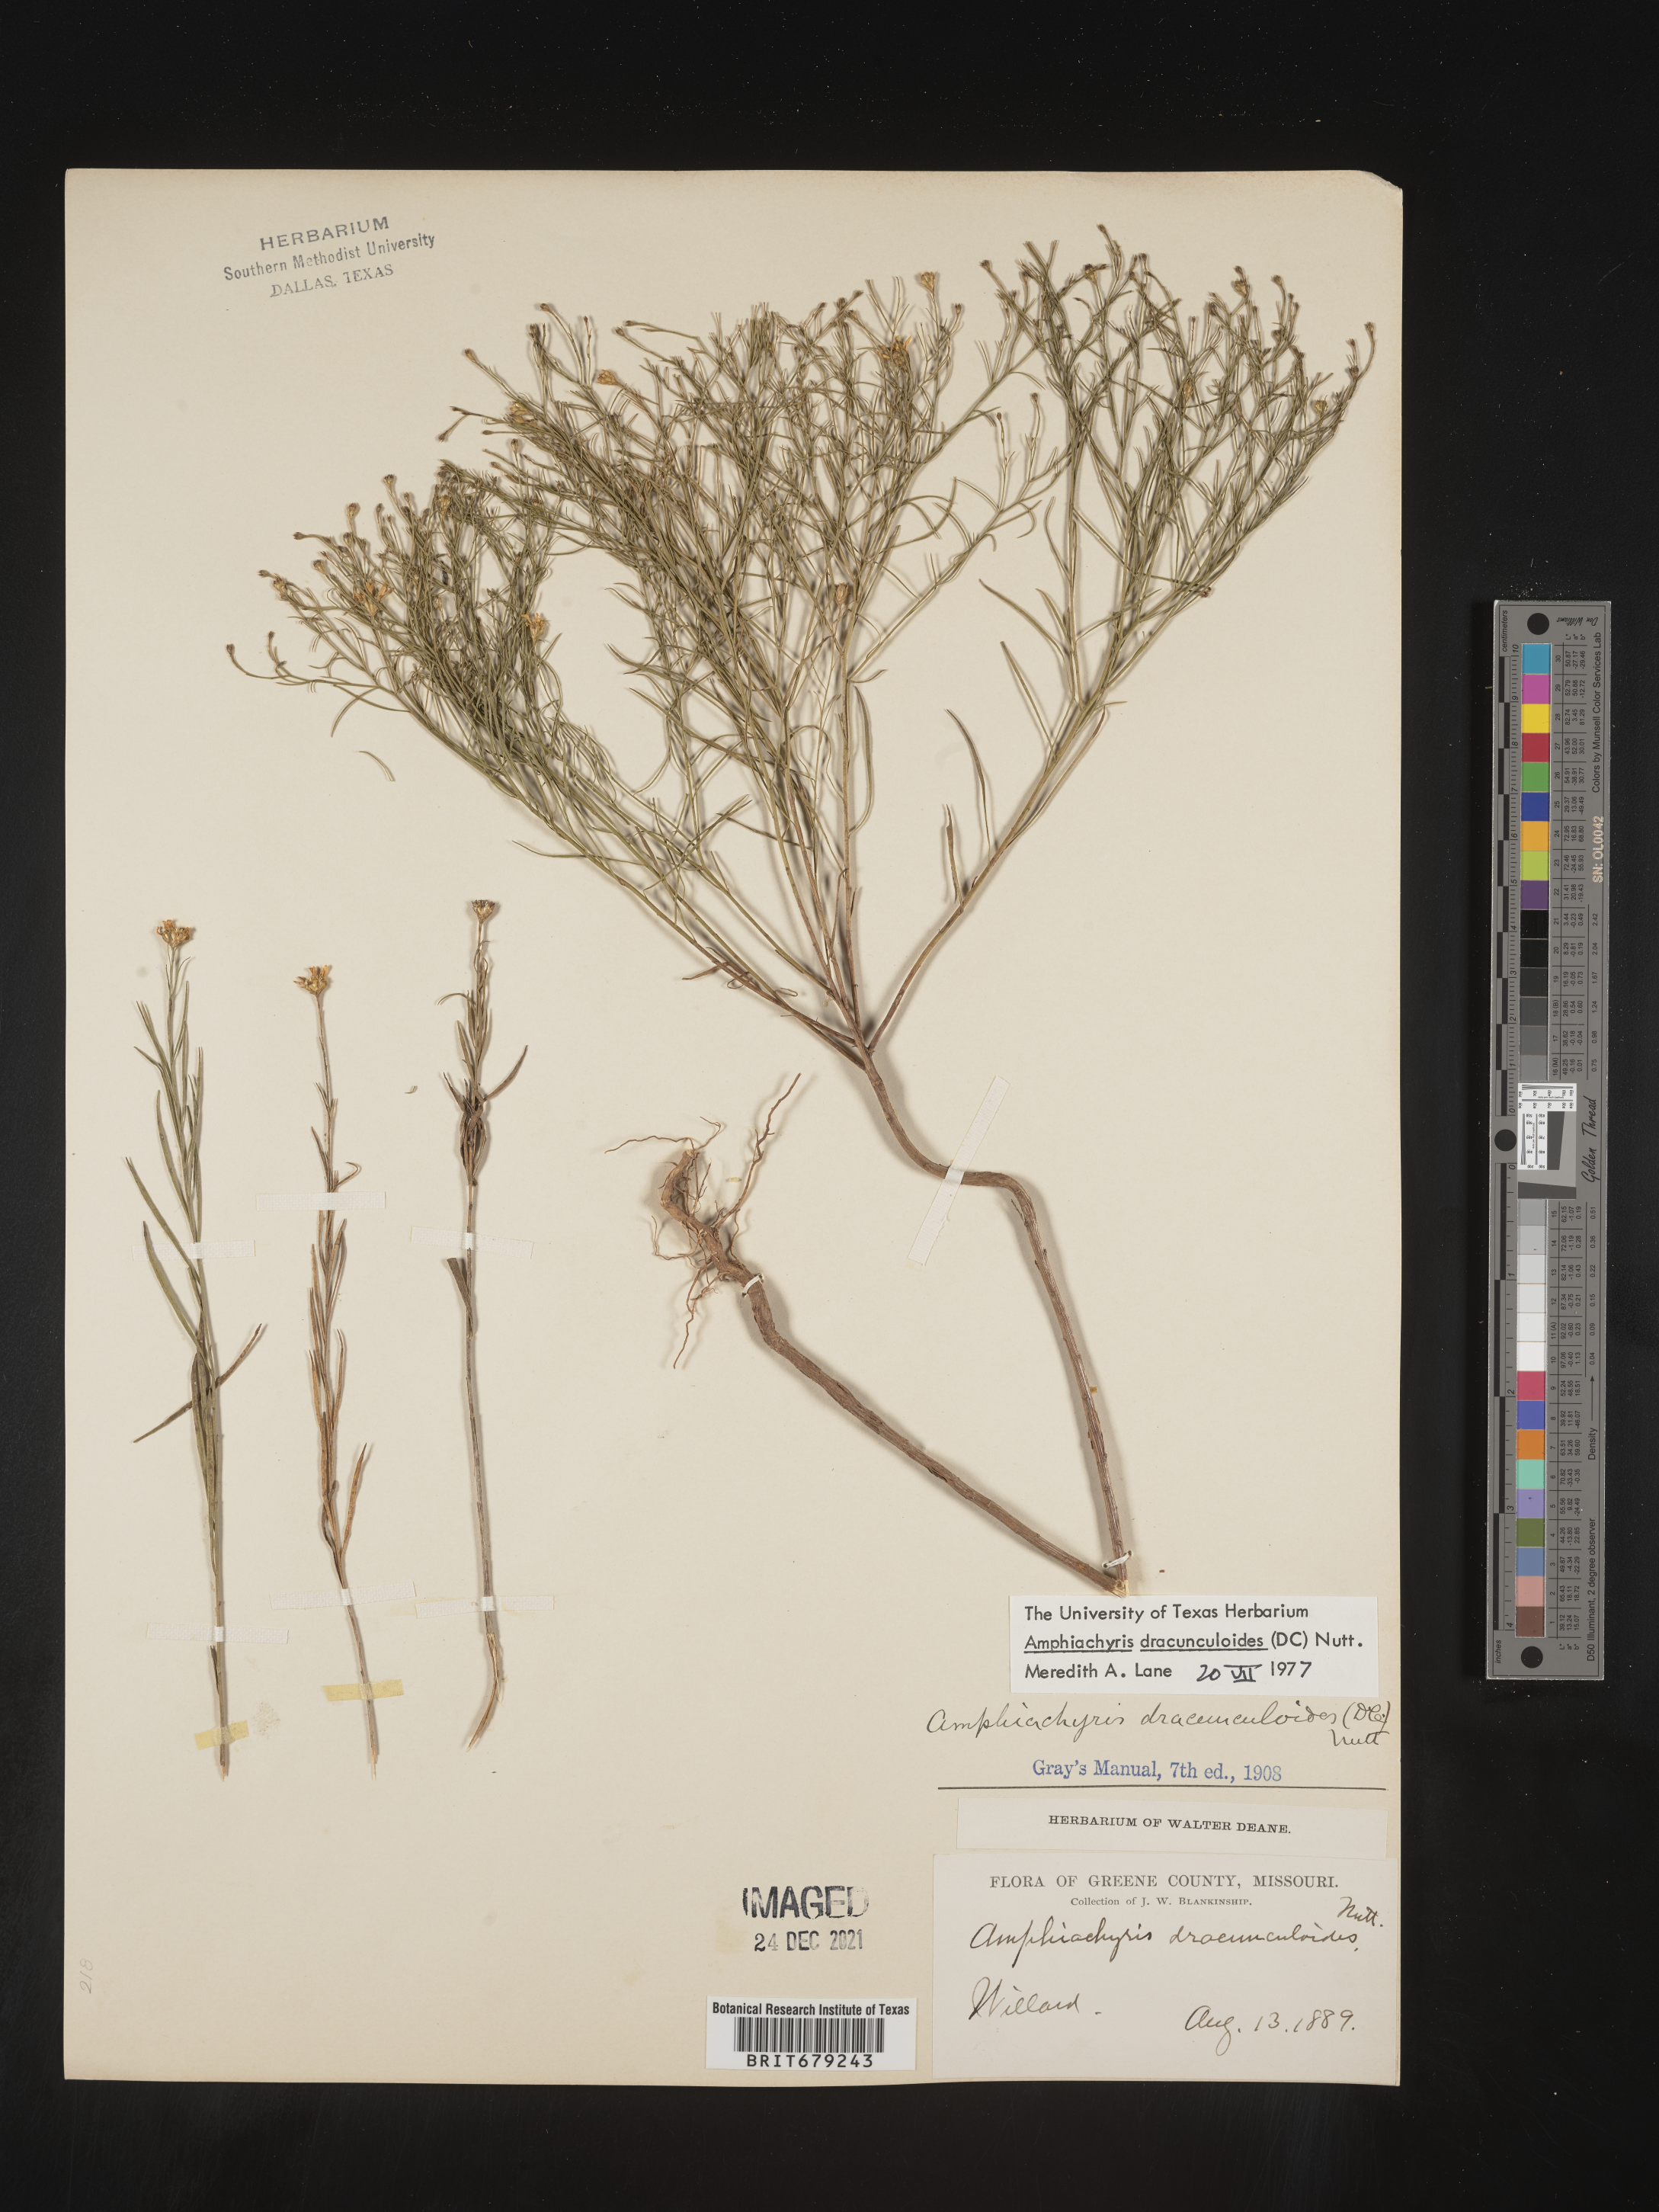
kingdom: Plantae
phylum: Tracheophyta
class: Magnoliopsida
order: Asterales
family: Asteraceae
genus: Amphiachyris
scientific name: Amphiachyris dracunculoides
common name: Broomweed
